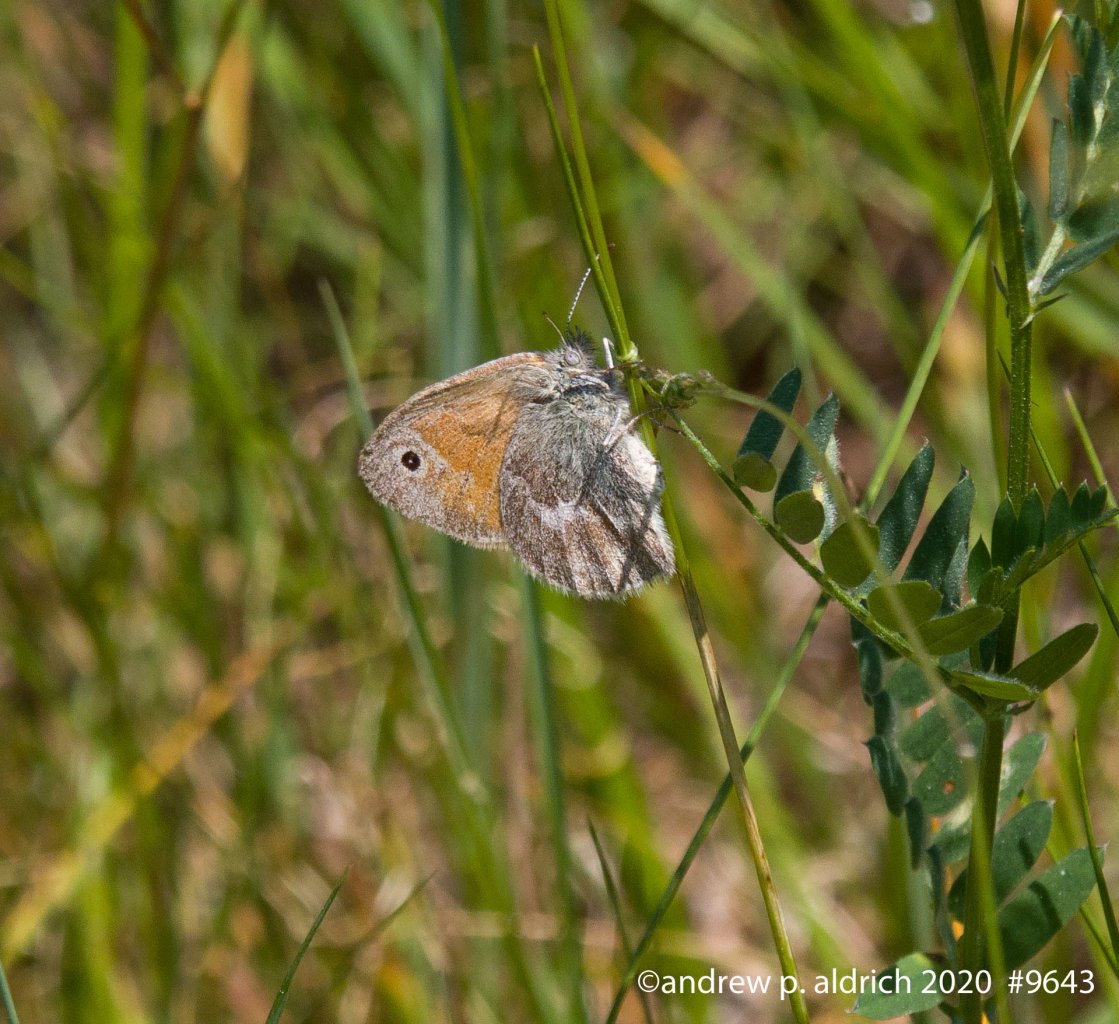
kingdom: Animalia
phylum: Arthropoda
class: Insecta
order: Lepidoptera
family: Nymphalidae
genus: Coenonympha
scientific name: Coenonympha tullia
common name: Large Heath
